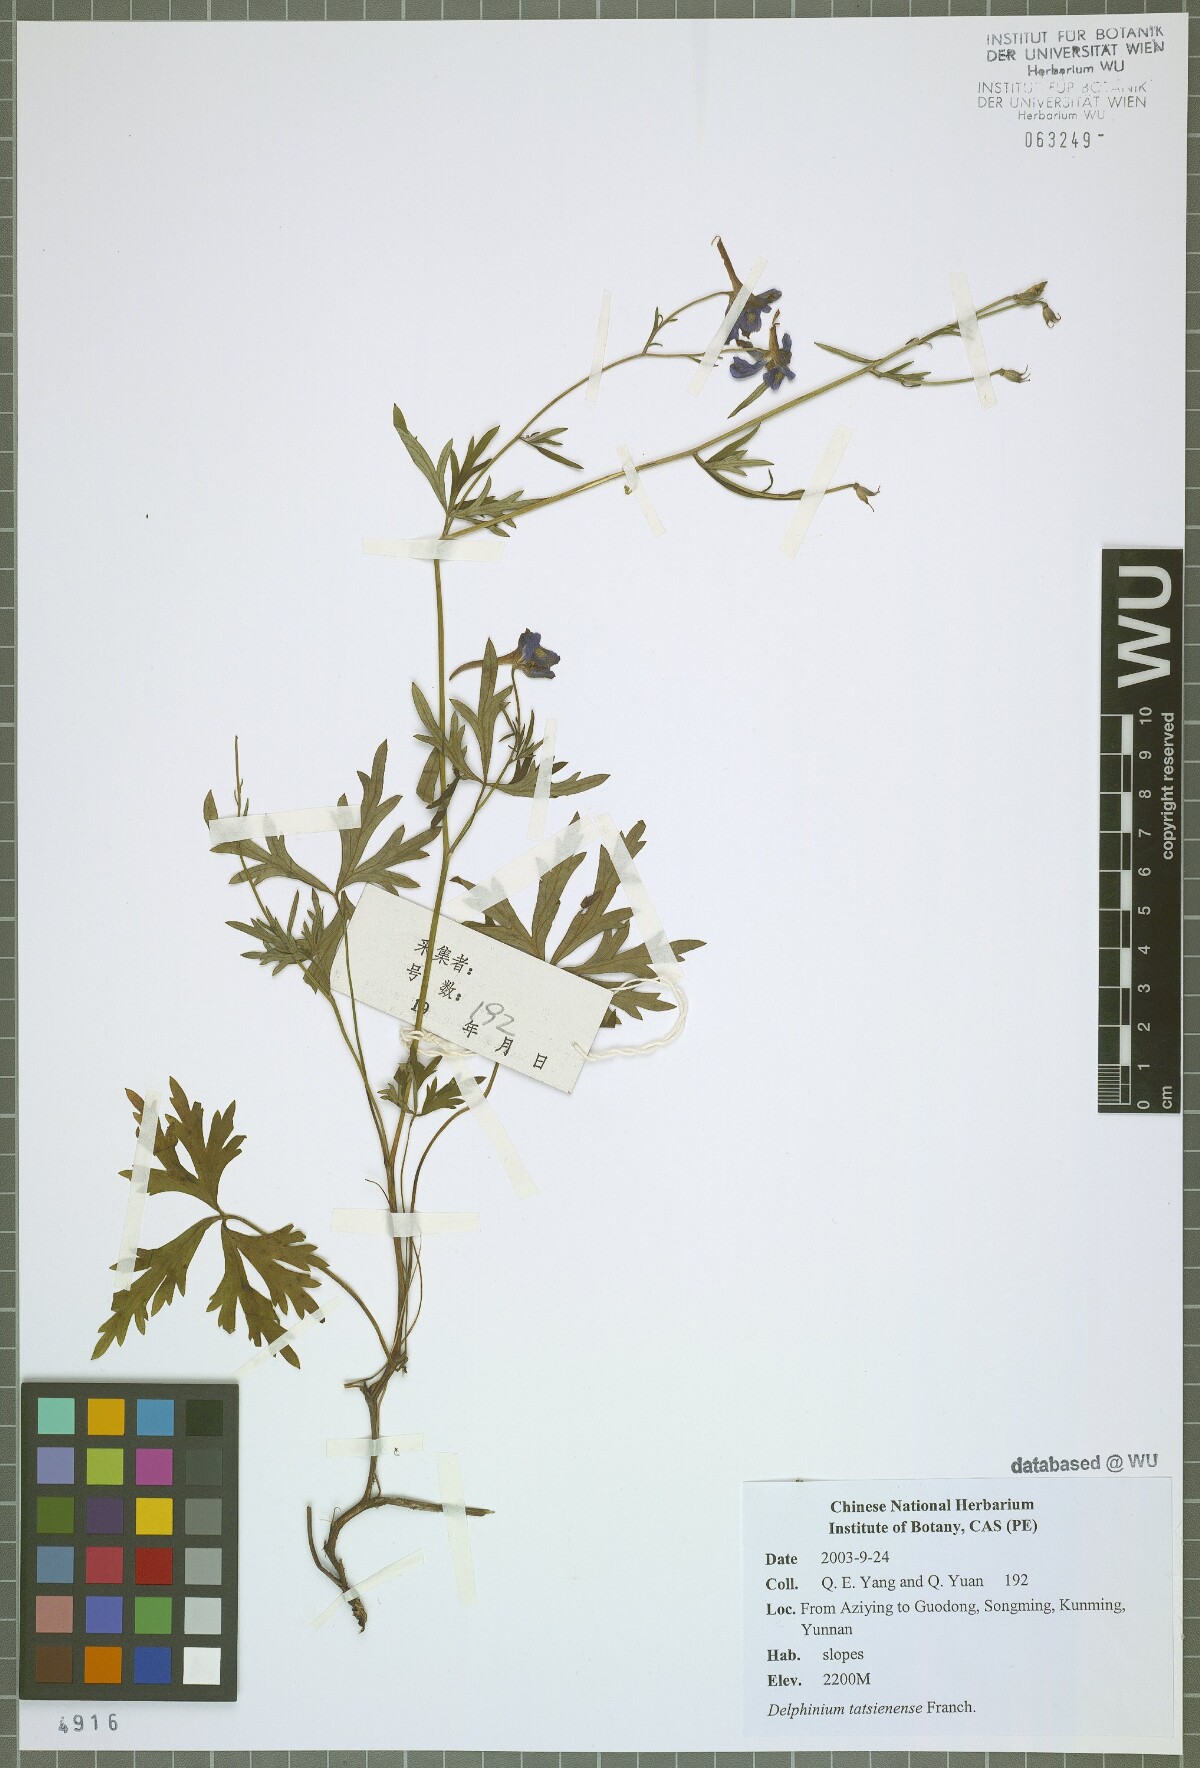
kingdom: Plantae
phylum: Tracheophyta
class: Magnoliopsida
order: Ranunculales
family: Ranunculaceae
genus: Delphinium
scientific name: Delphinium tatsienense
